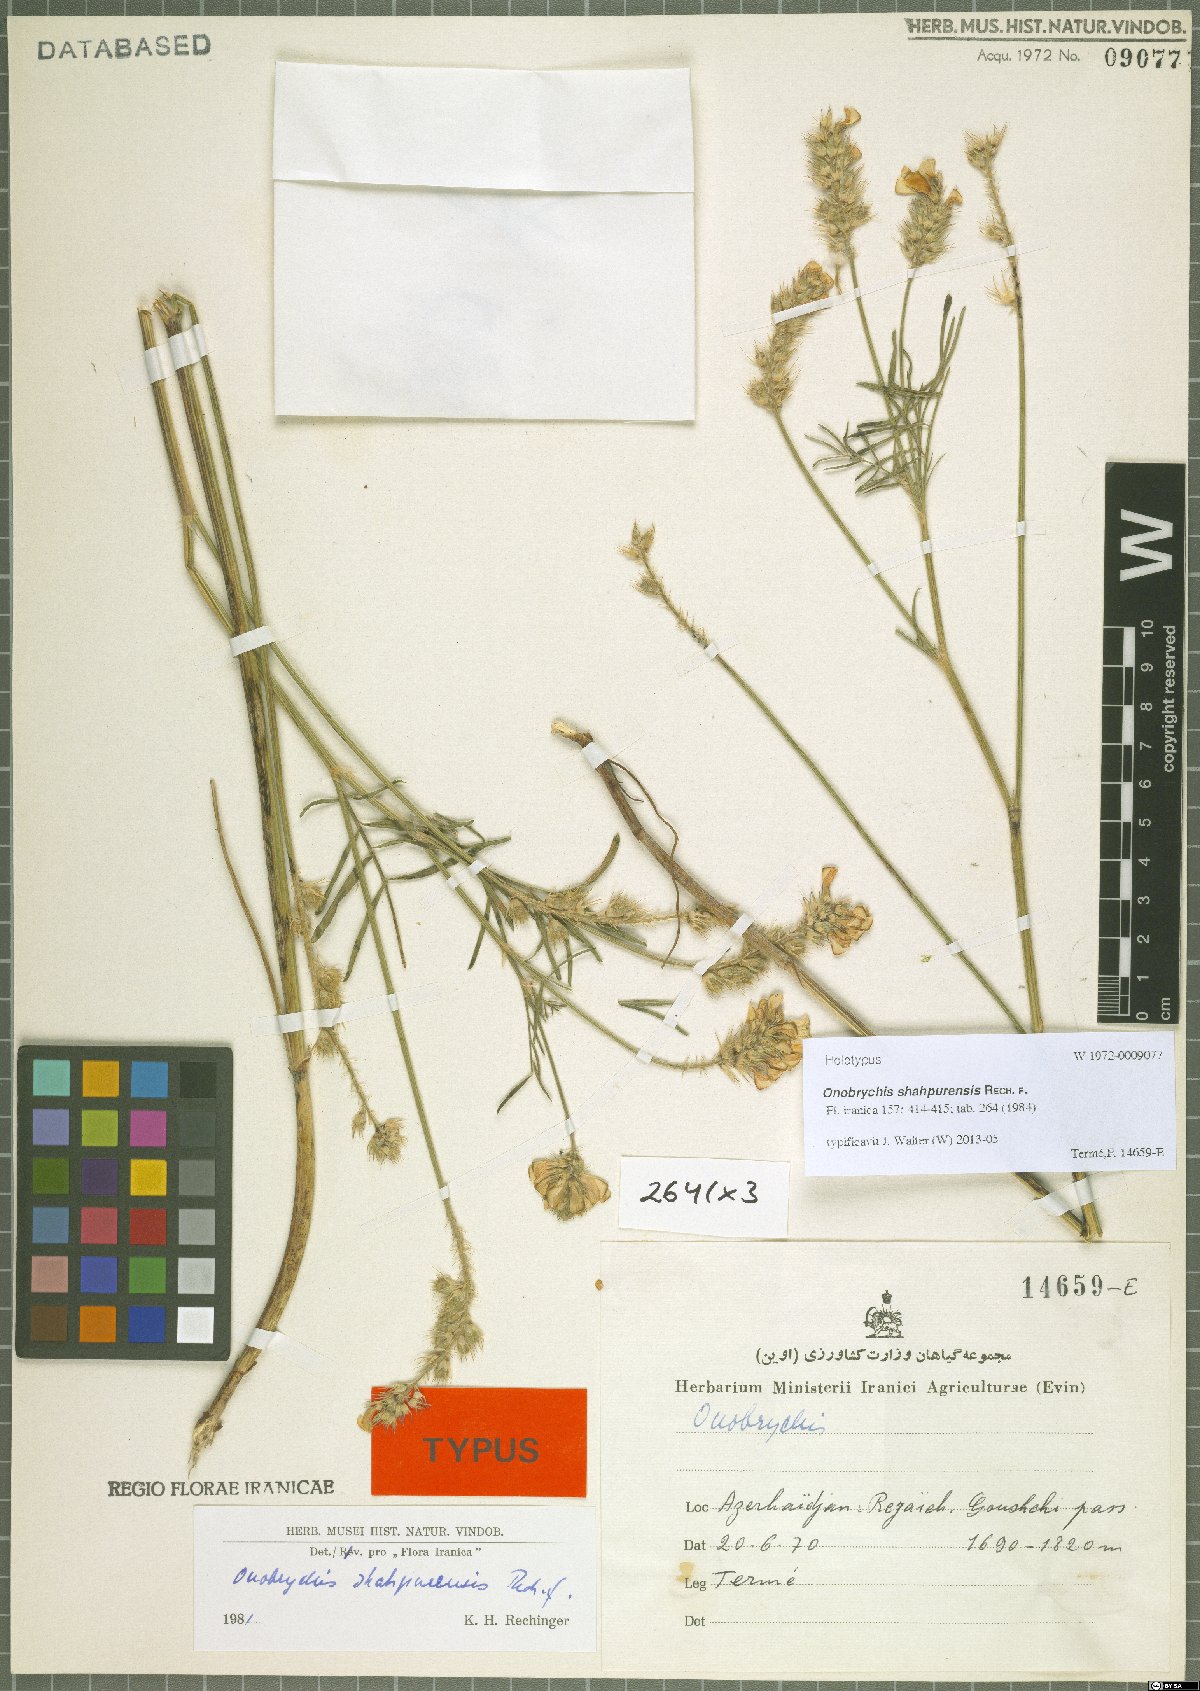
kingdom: Plantae
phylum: Tracheophyta
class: Magnoliopsida
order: Fabales
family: Fabaceae
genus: Onobrychis
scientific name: Onobrychis shahpurensis
